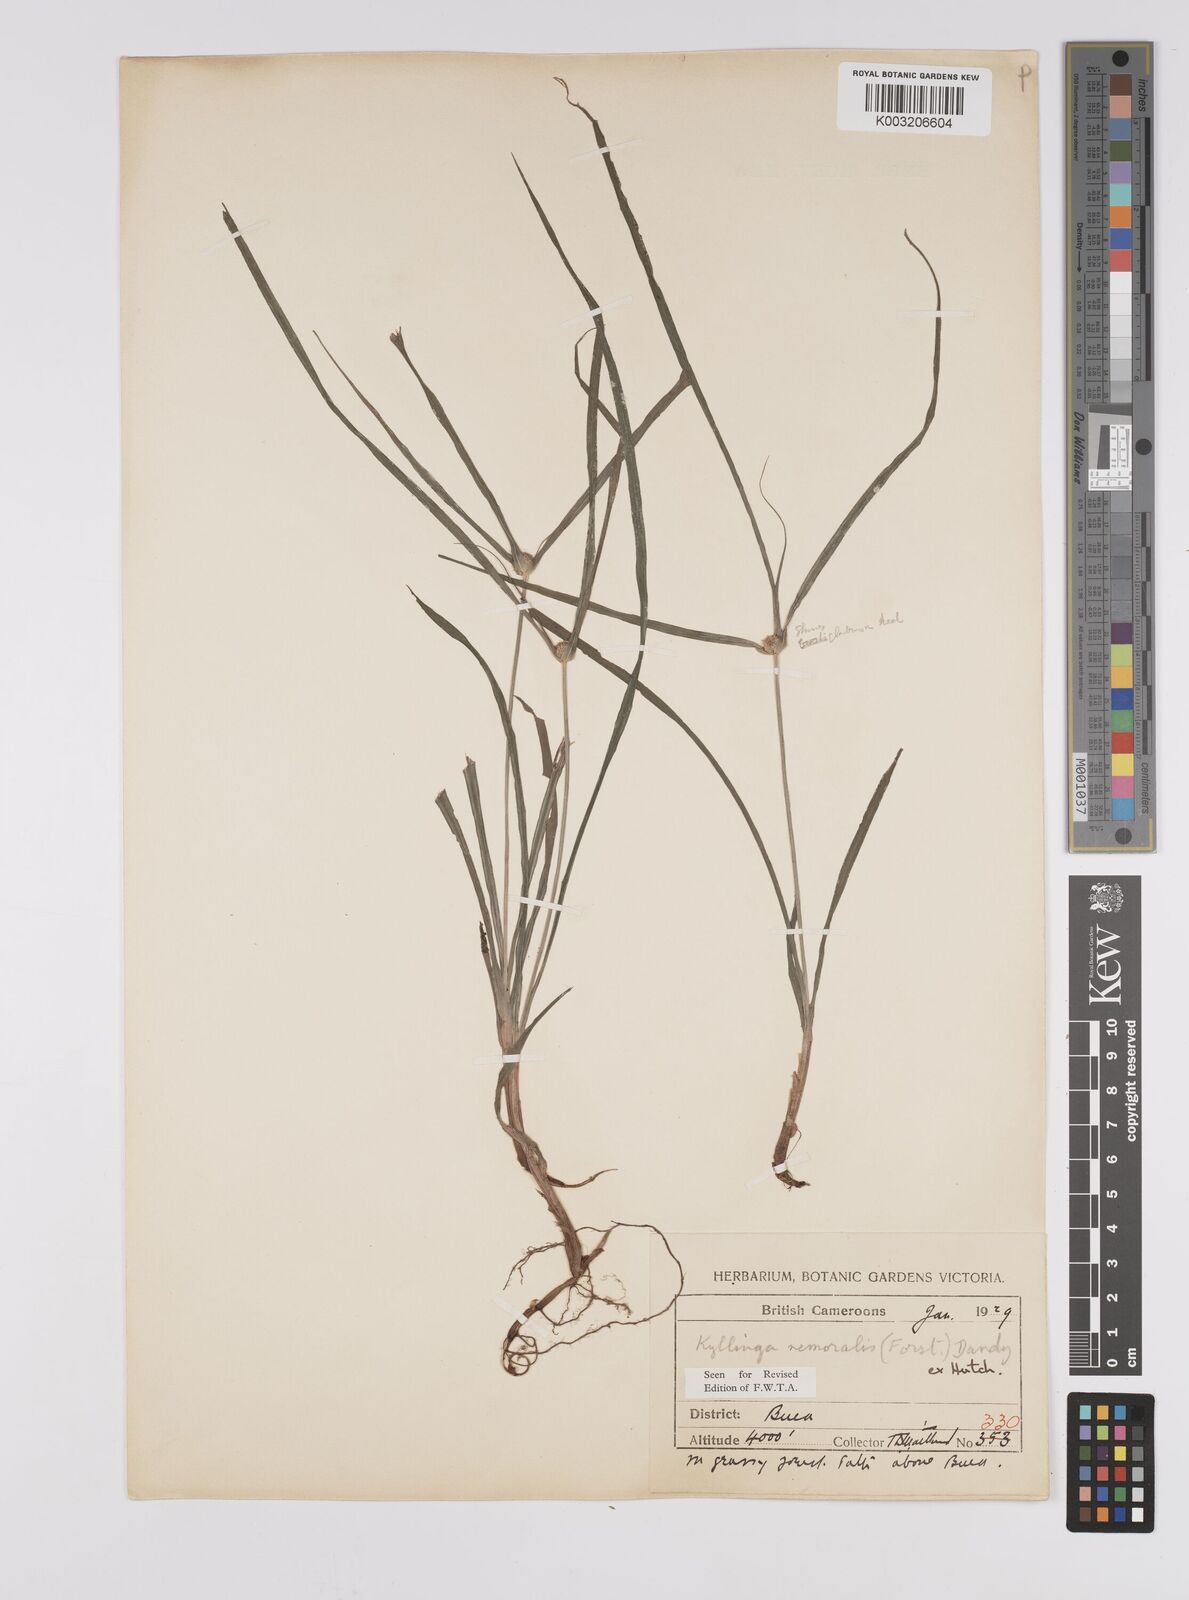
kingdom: Plantae
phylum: Tracheophyta
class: Liliopsida
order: Poales
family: Cyperaceae
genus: Cyperus
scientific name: Cyperus nemoralis
